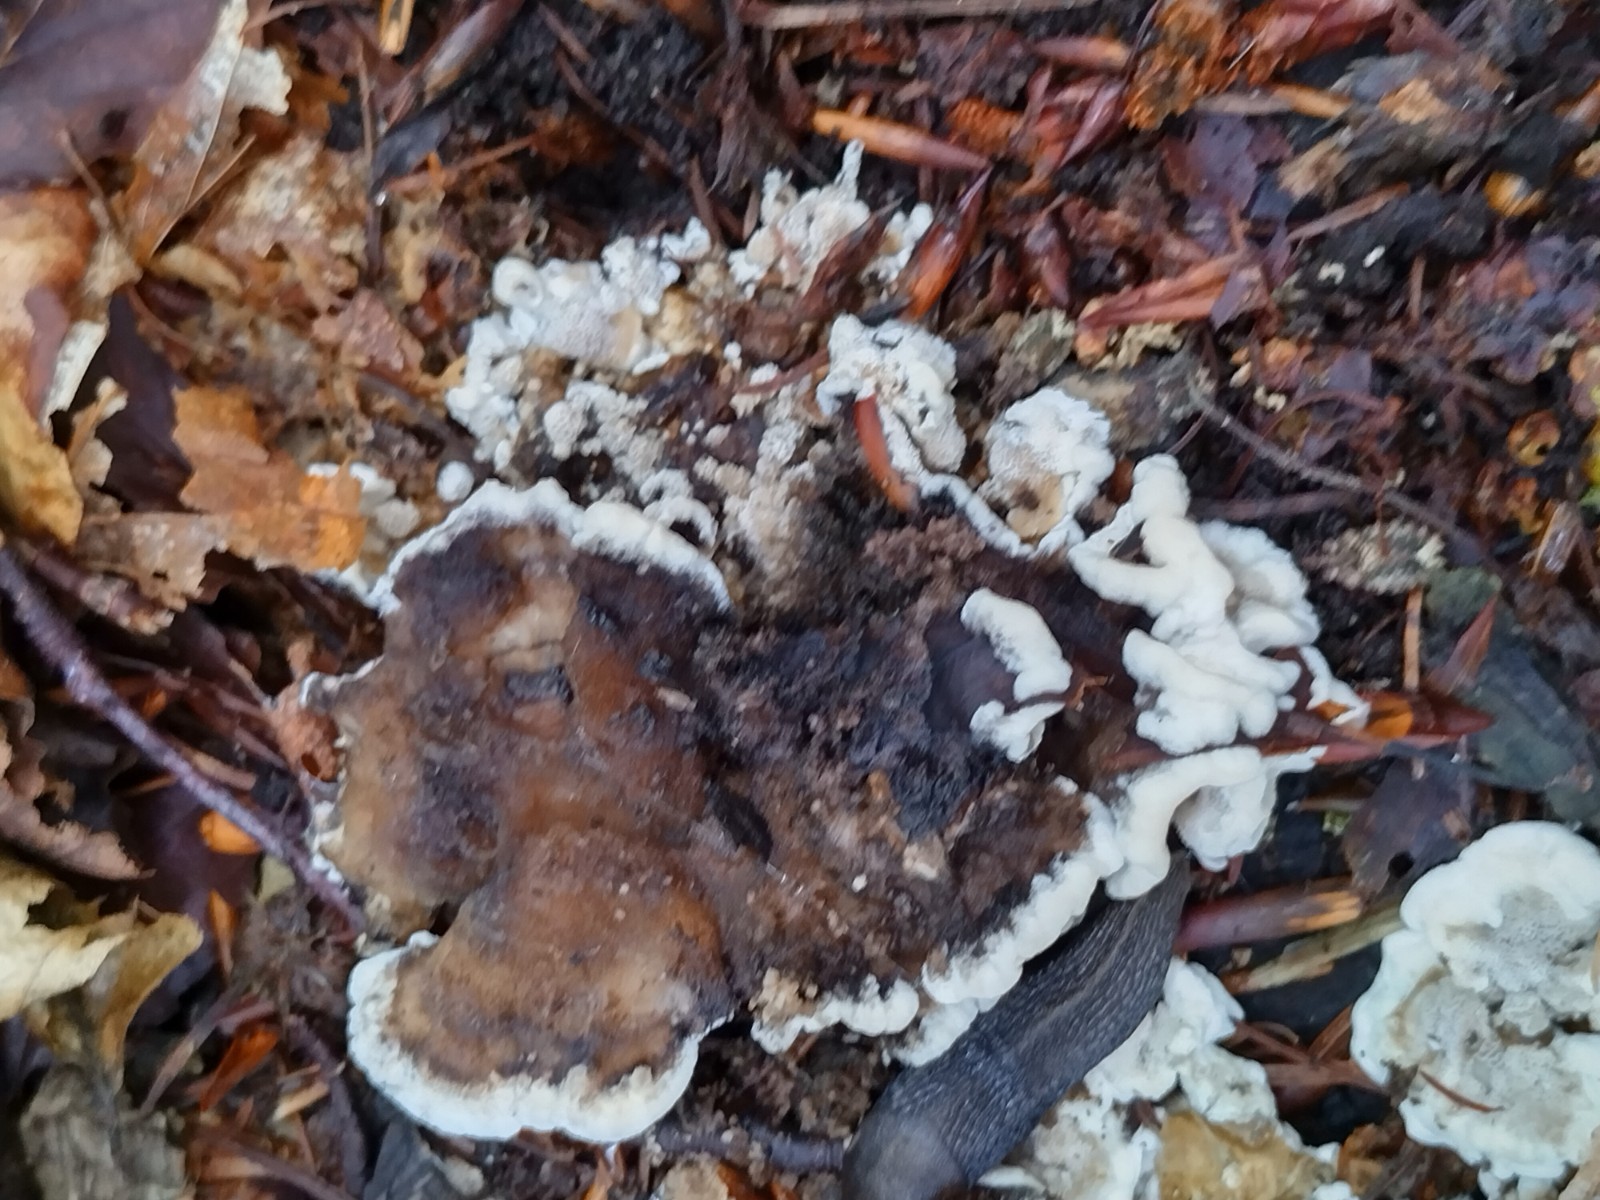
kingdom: Fungi
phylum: Basidiomycota
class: Agaricomycetes
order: Polyporales
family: Phanerochaetaceae
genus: Bjerkandera
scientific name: Bjerkandera adusta
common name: sveden sodporesvamp
